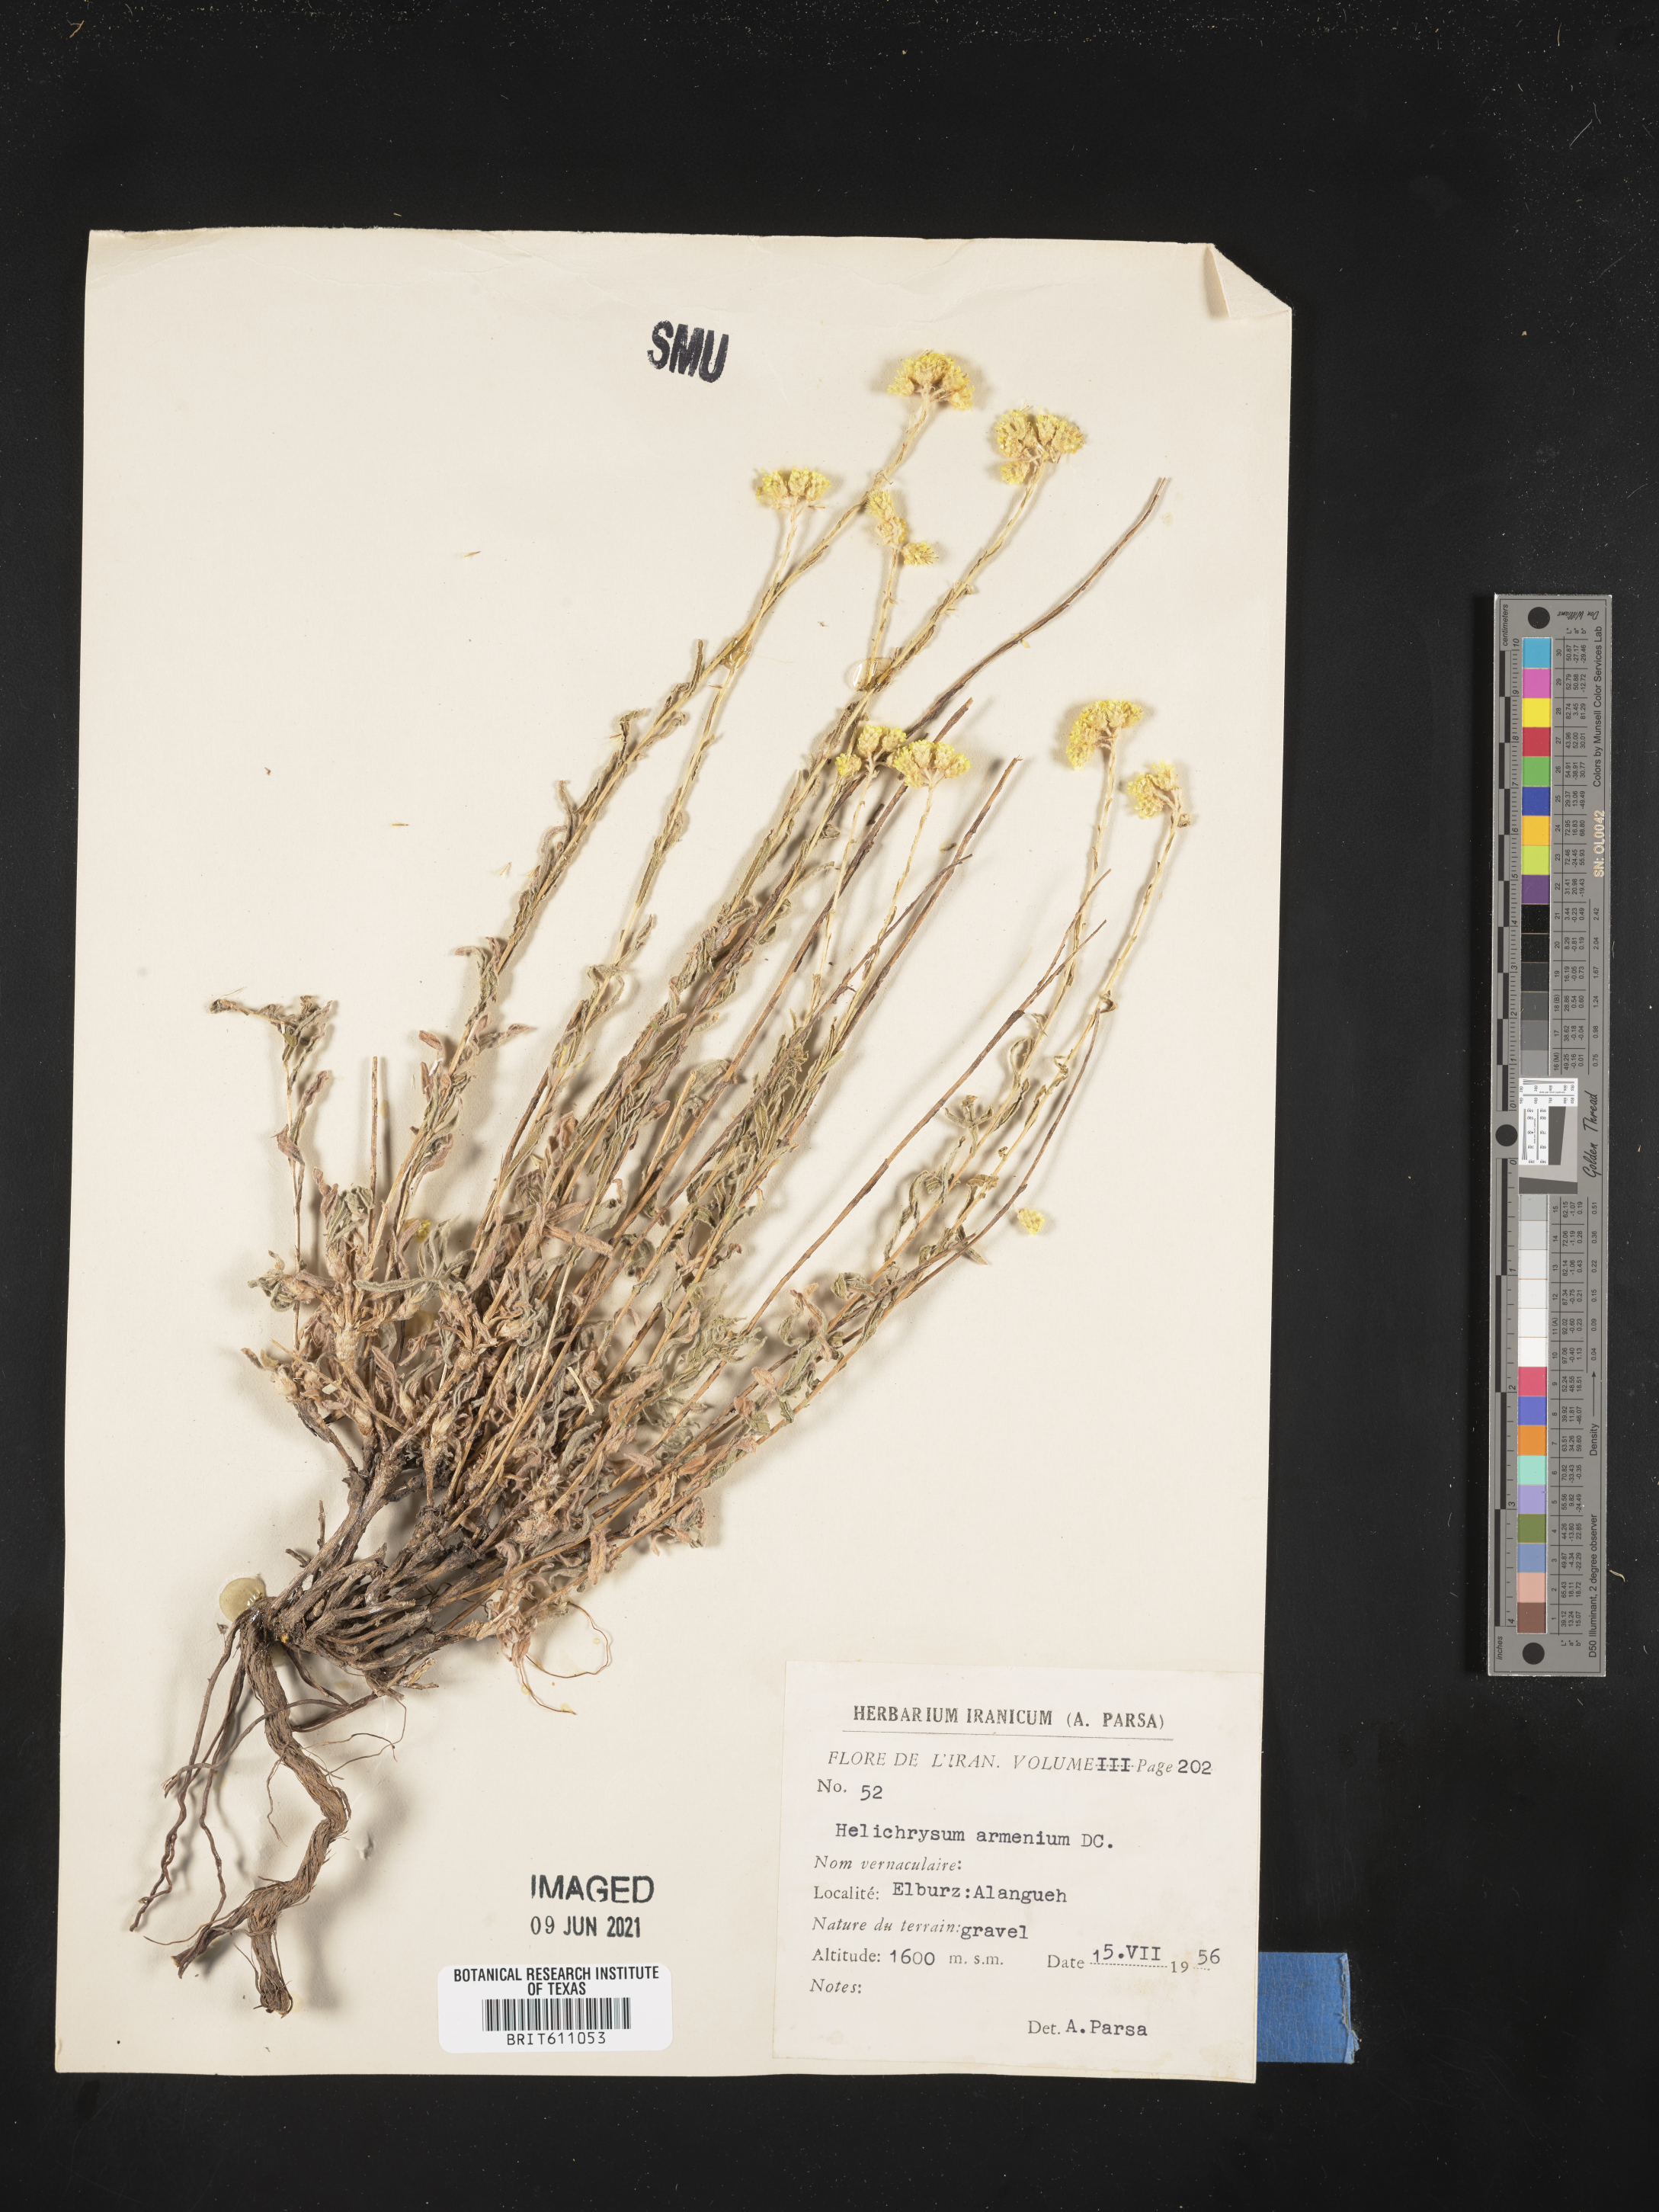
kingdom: Plantae
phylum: Tracheophyta
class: Magnoliopsida
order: Asterales
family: Asteraceae
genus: Helichrysum
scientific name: Helichrysum armenium
